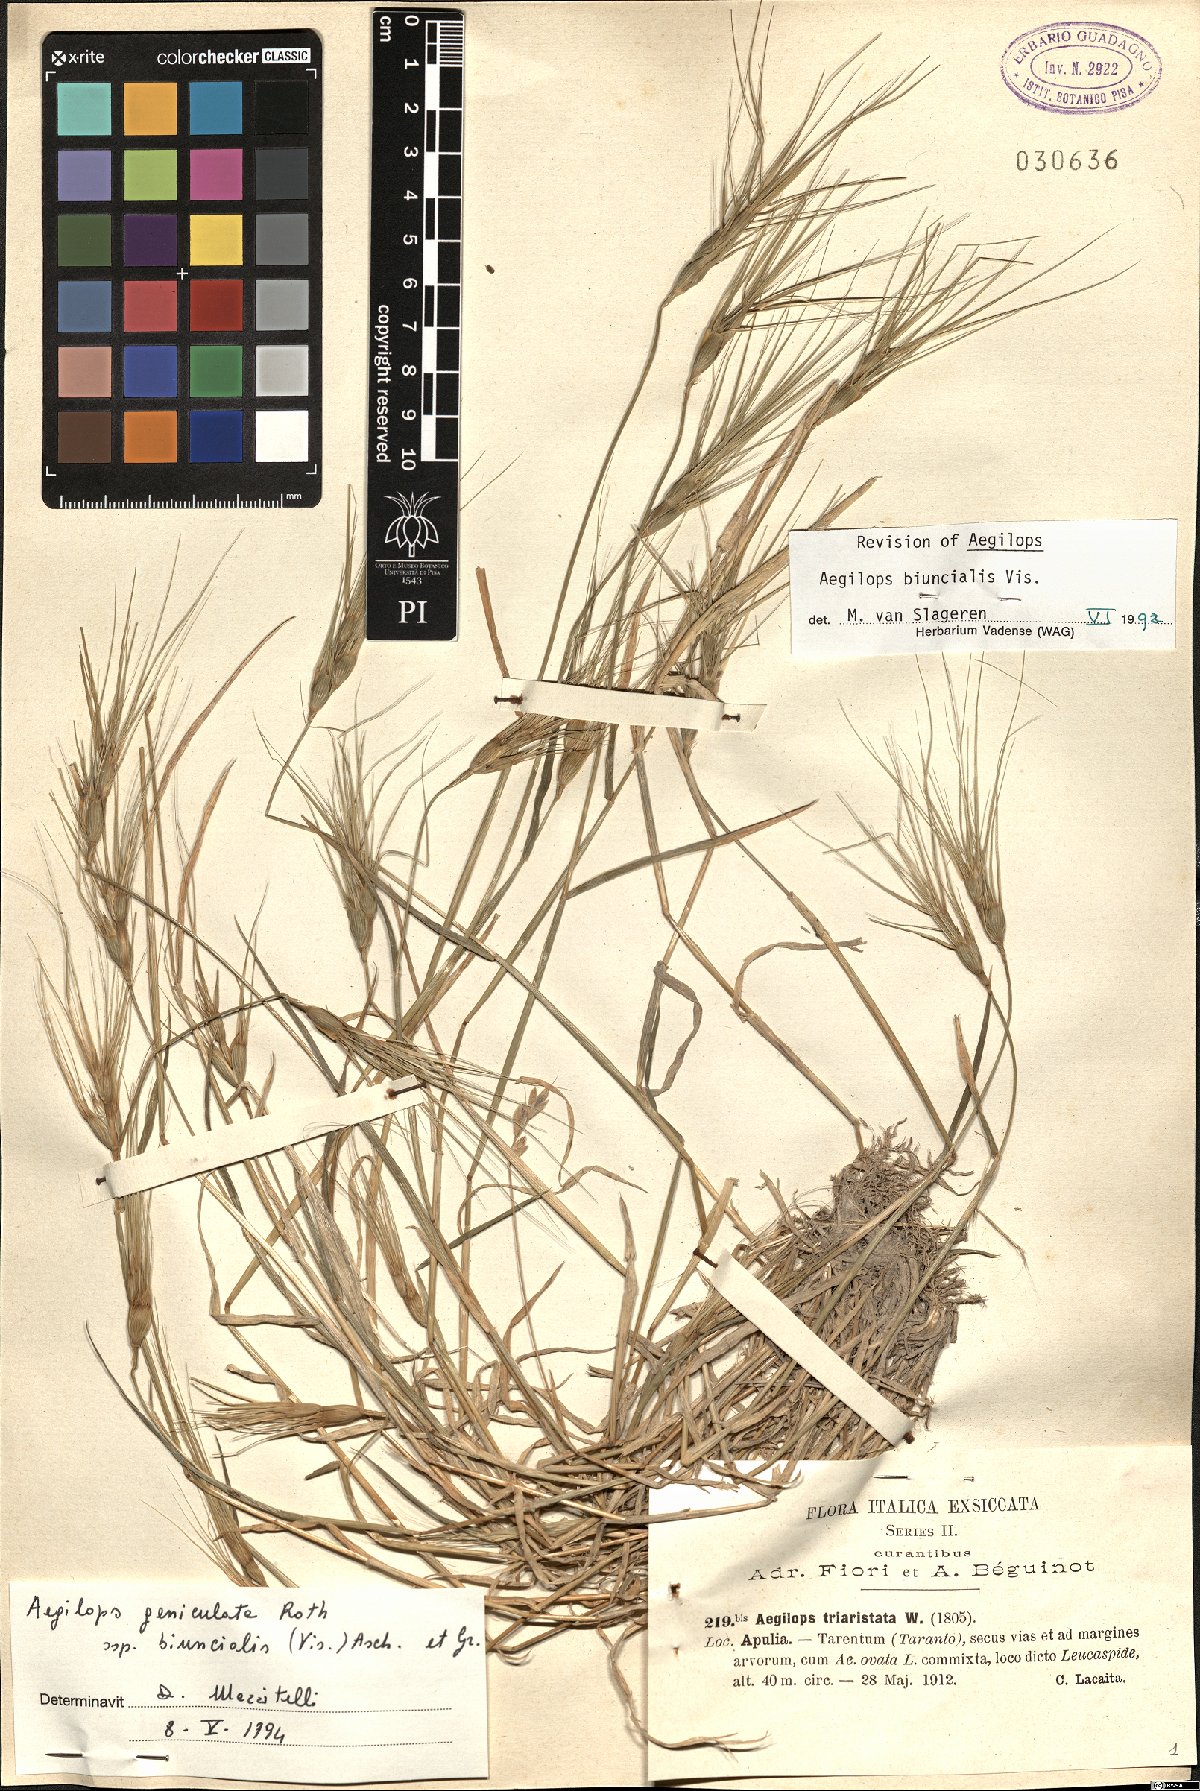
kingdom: Plantae
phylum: Tracheophyta
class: Liliopsida
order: Poales
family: Poaceae
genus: Aegilops
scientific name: Aegilops geniculata
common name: Ovate goat grass
